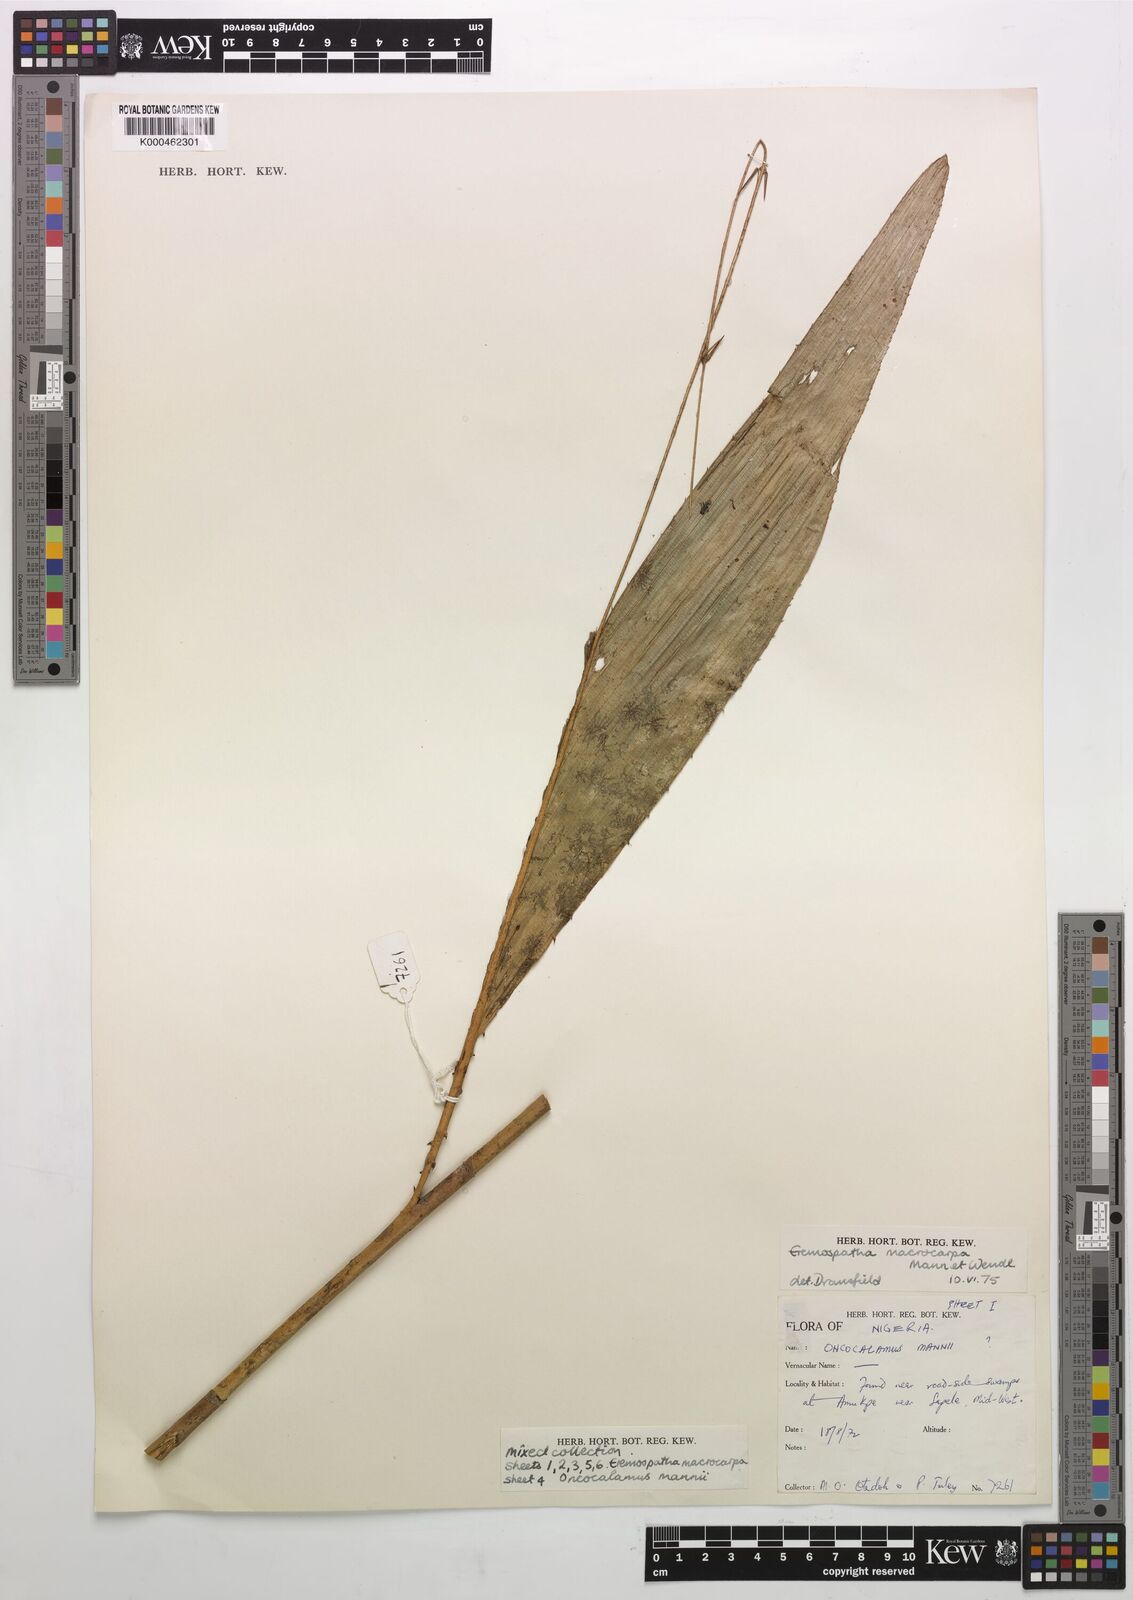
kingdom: Plantae
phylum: Tracheophyta
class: Liliopsida
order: Arecales
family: Arecaceae
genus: Eremospatha
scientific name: Eremospatha
